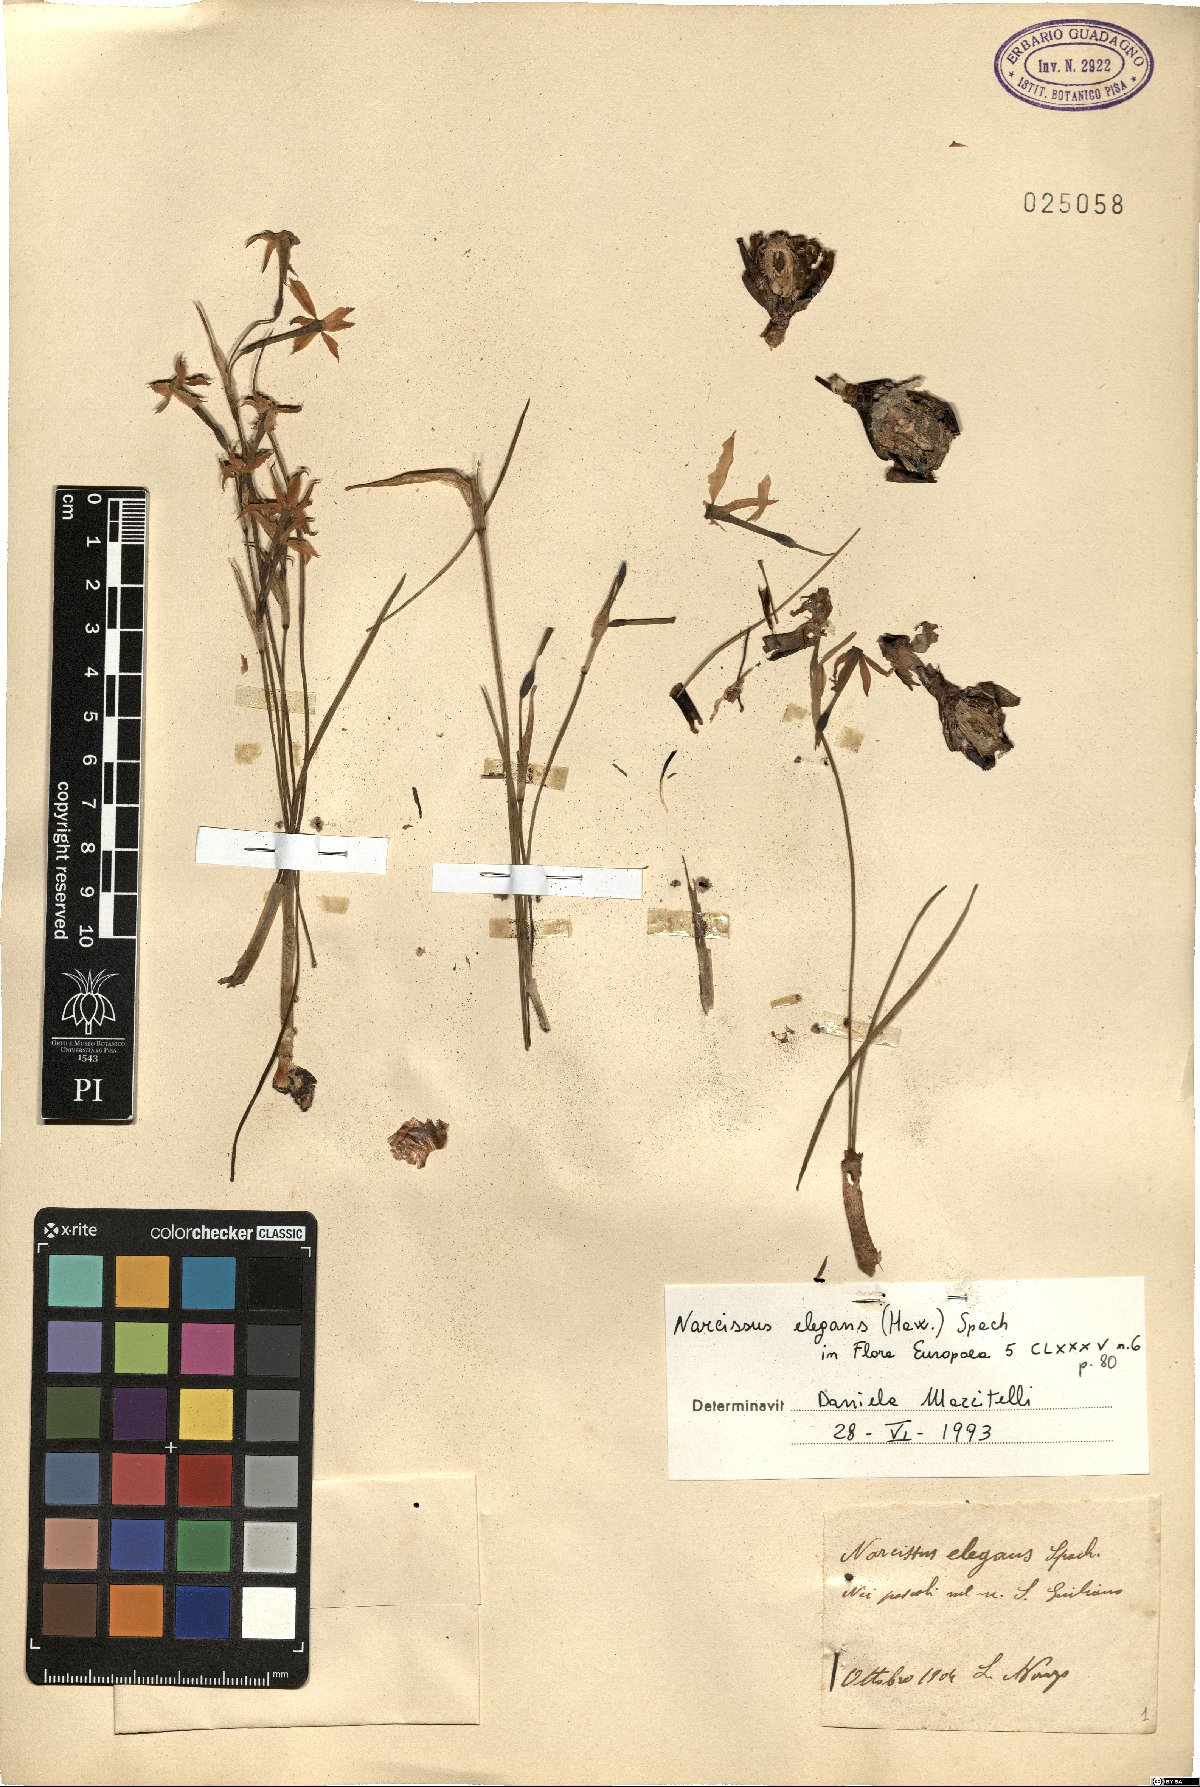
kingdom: Plantae
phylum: Tracheophyta
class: Liliopsida
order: Asparagales
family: Amaryllidaceae
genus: Narcissus
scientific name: Narcissus obsoletus
